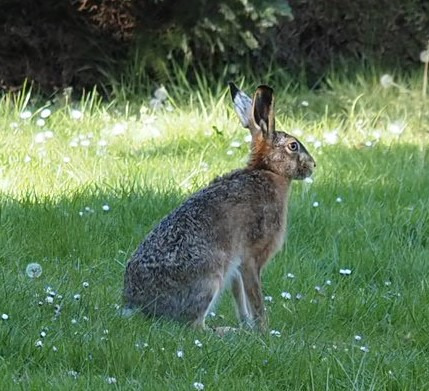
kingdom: Animalia
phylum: Chordata
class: Mammalia
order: Lagomorpha
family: Leporidae
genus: Lepus
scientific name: Lepus europaeus
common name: Hare
